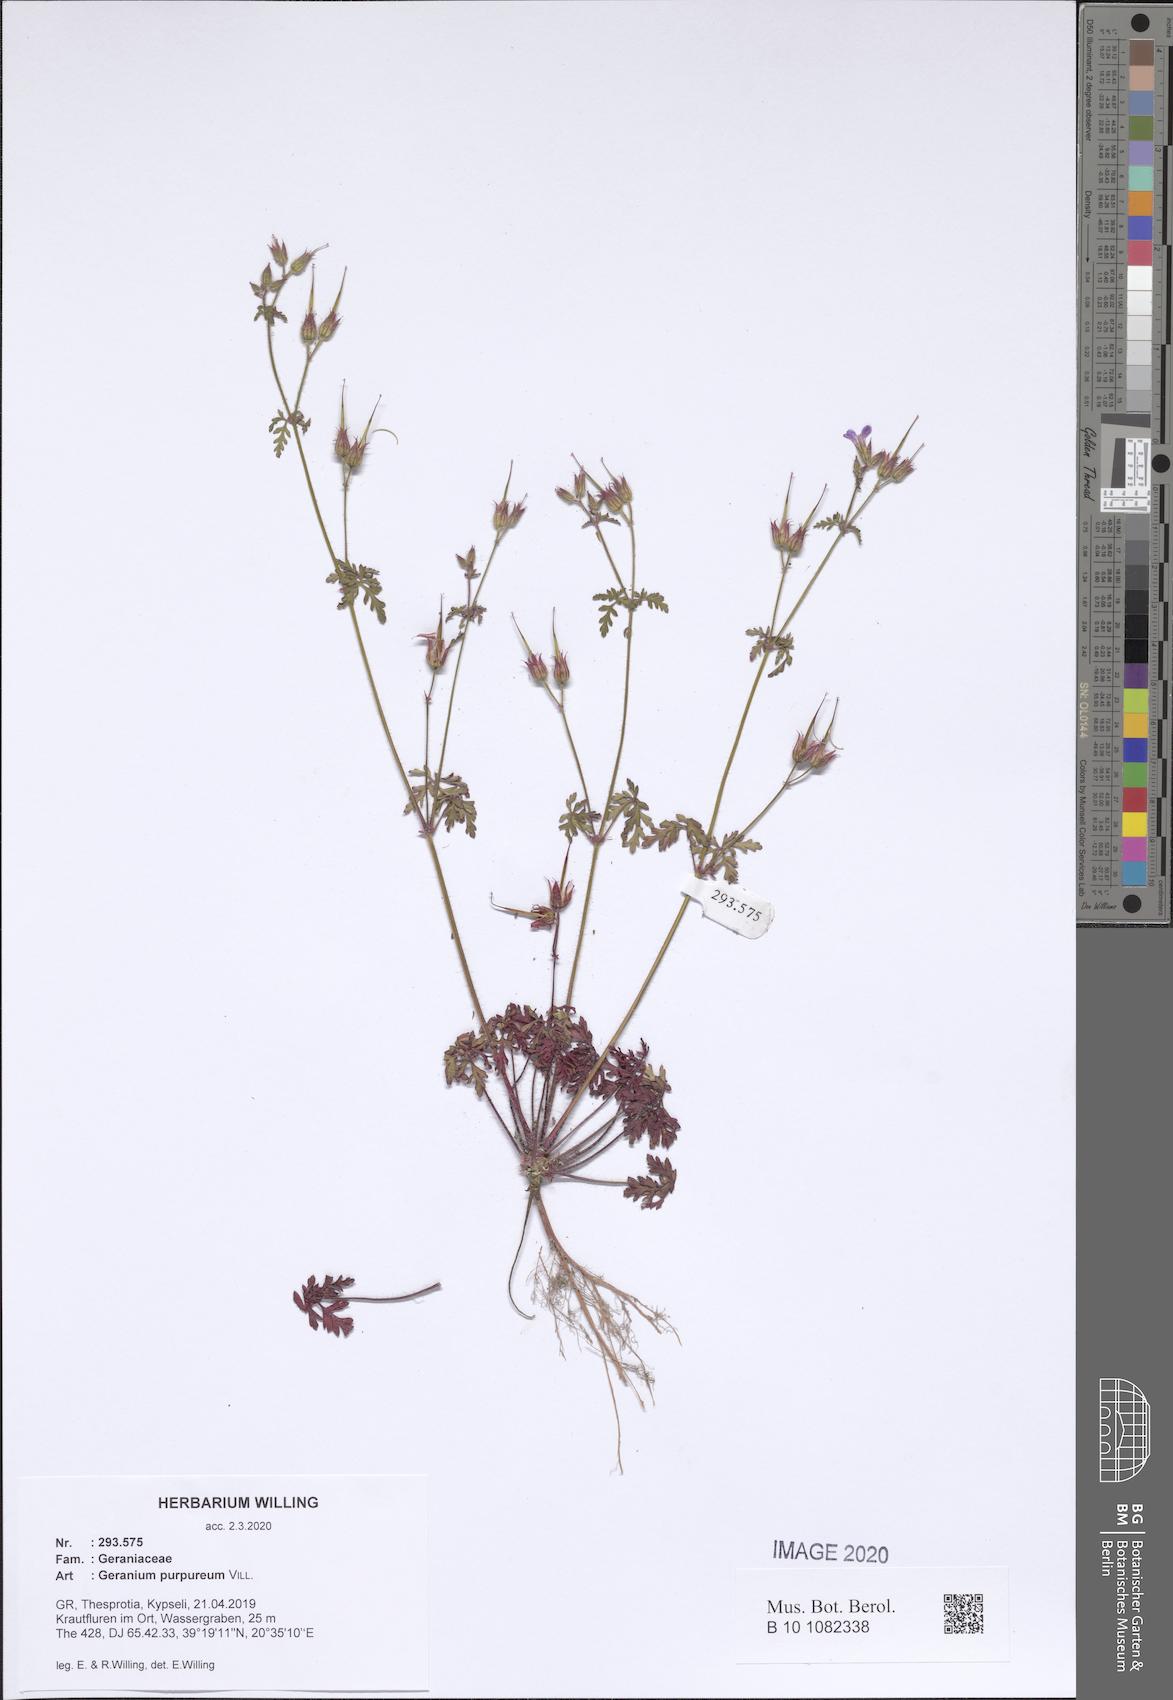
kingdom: Plantae
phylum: Tracheophyta
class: Magnoliopsida
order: Geraniales
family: Geraniaceae
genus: Geranium
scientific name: Geranium purpureum
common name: Little-robin
